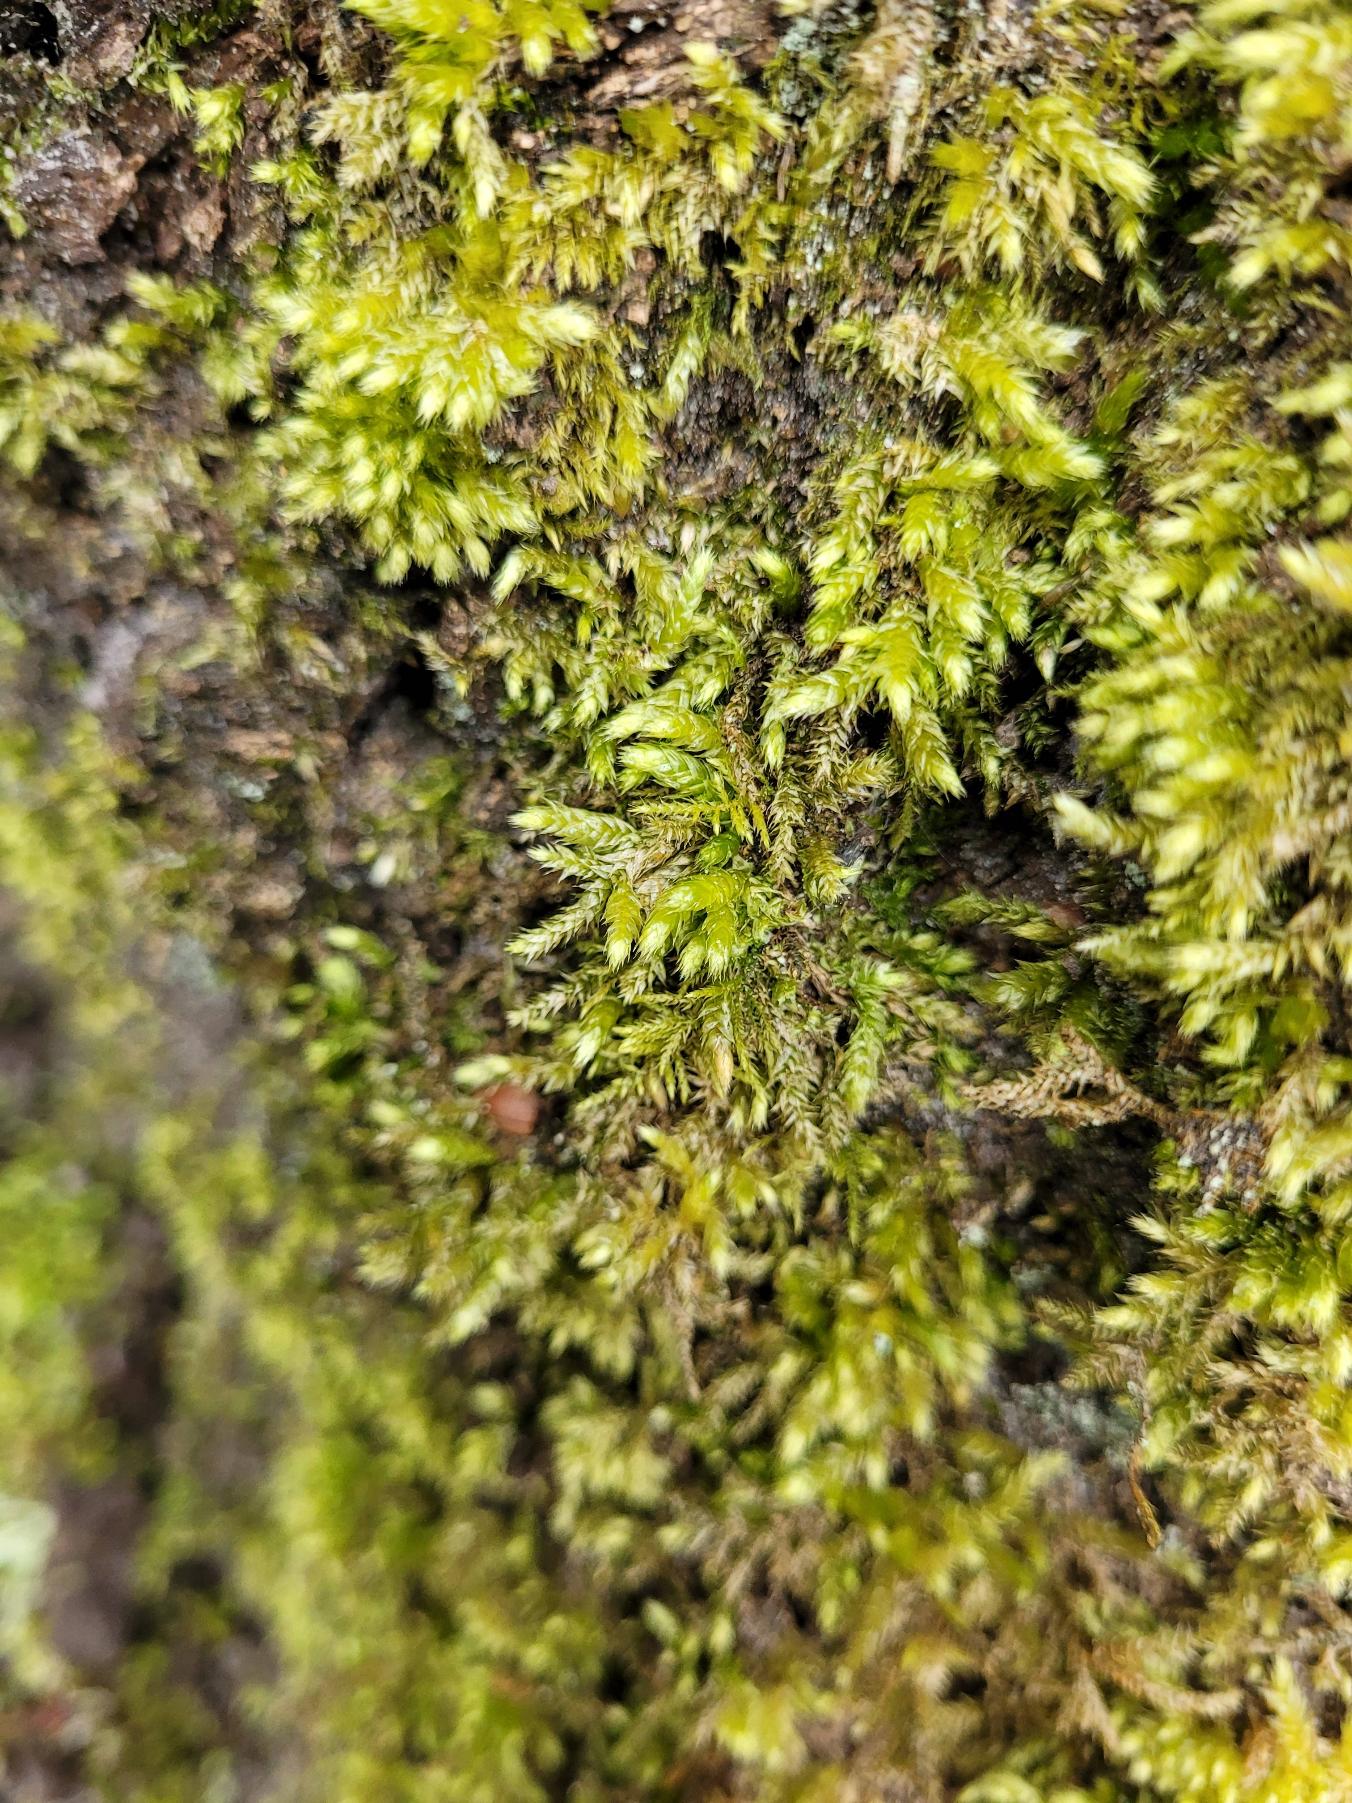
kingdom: Plantae
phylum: Bryophyta
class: Bryopsida
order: Hypnales
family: Brachytheciaceae
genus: Brachythecium
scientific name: Brachythecium rutabulum
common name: Almindelig kortkapsel
